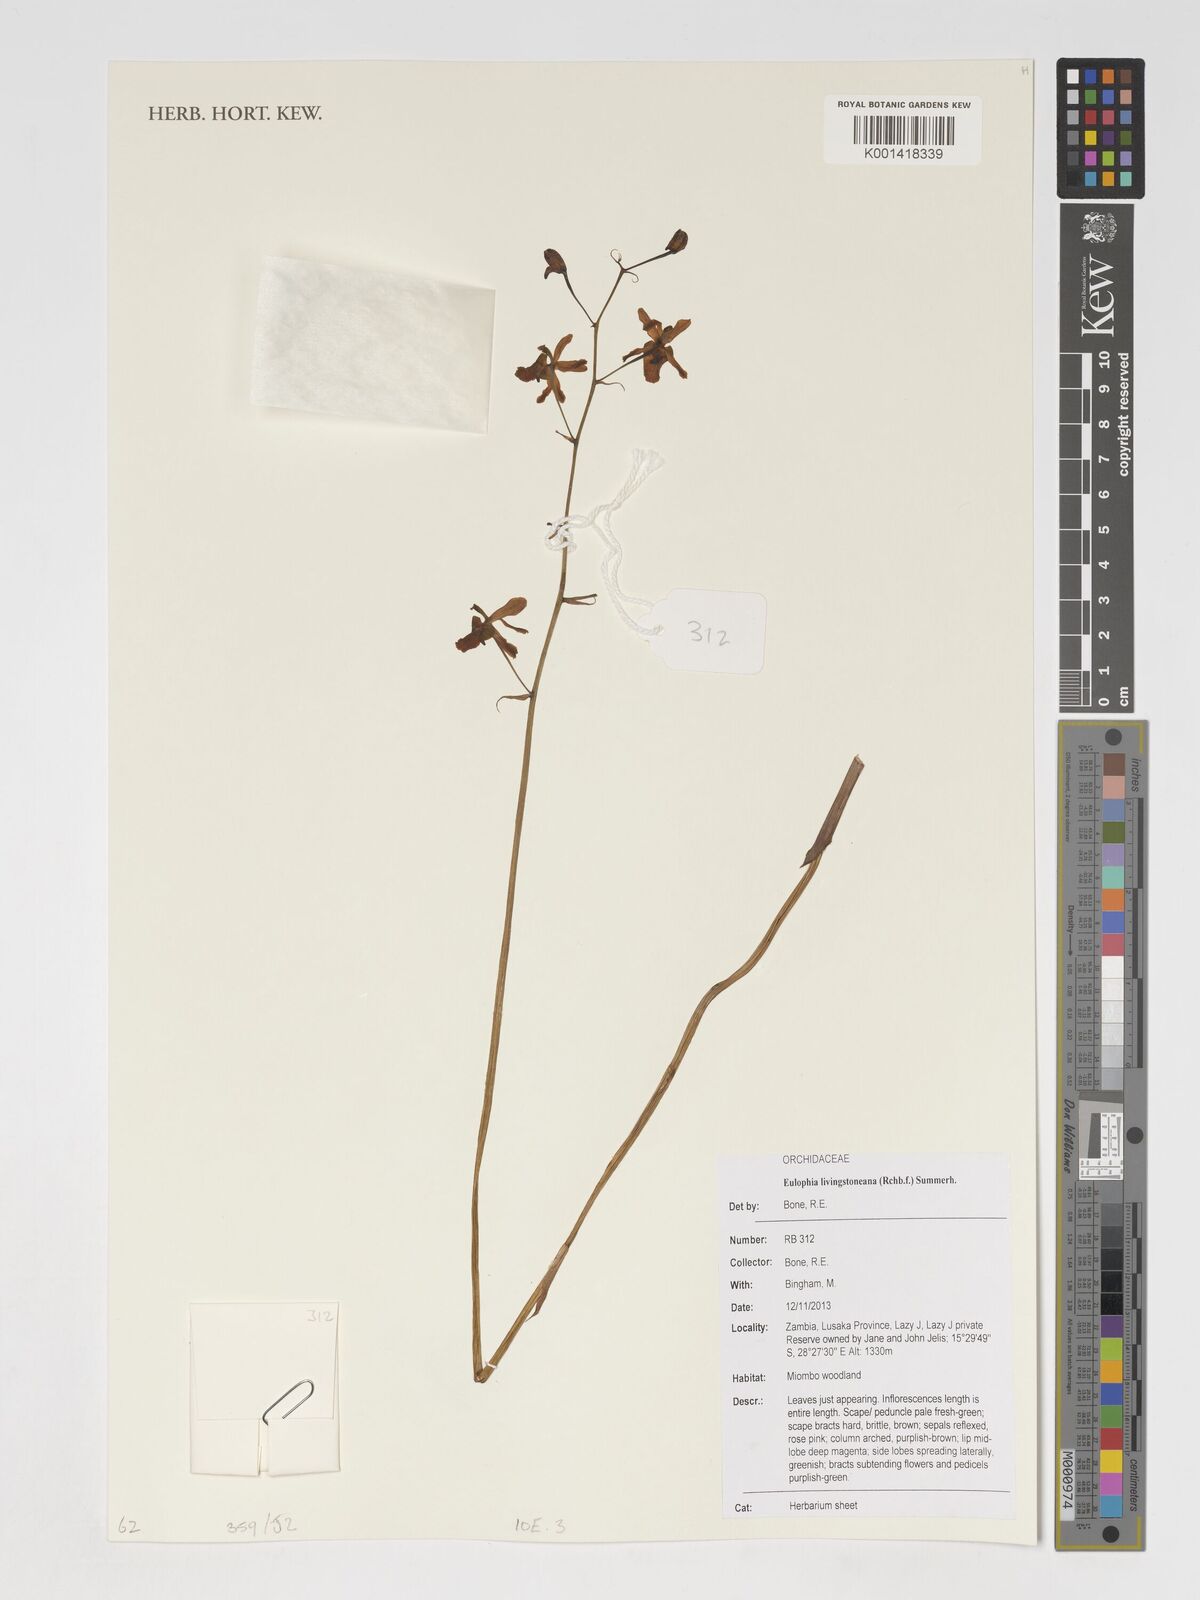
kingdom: Plantae
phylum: Tracheophyta
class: Liliopsida
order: Asparagales
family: Orchidaceae
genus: Eulophia
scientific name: Eulophia
